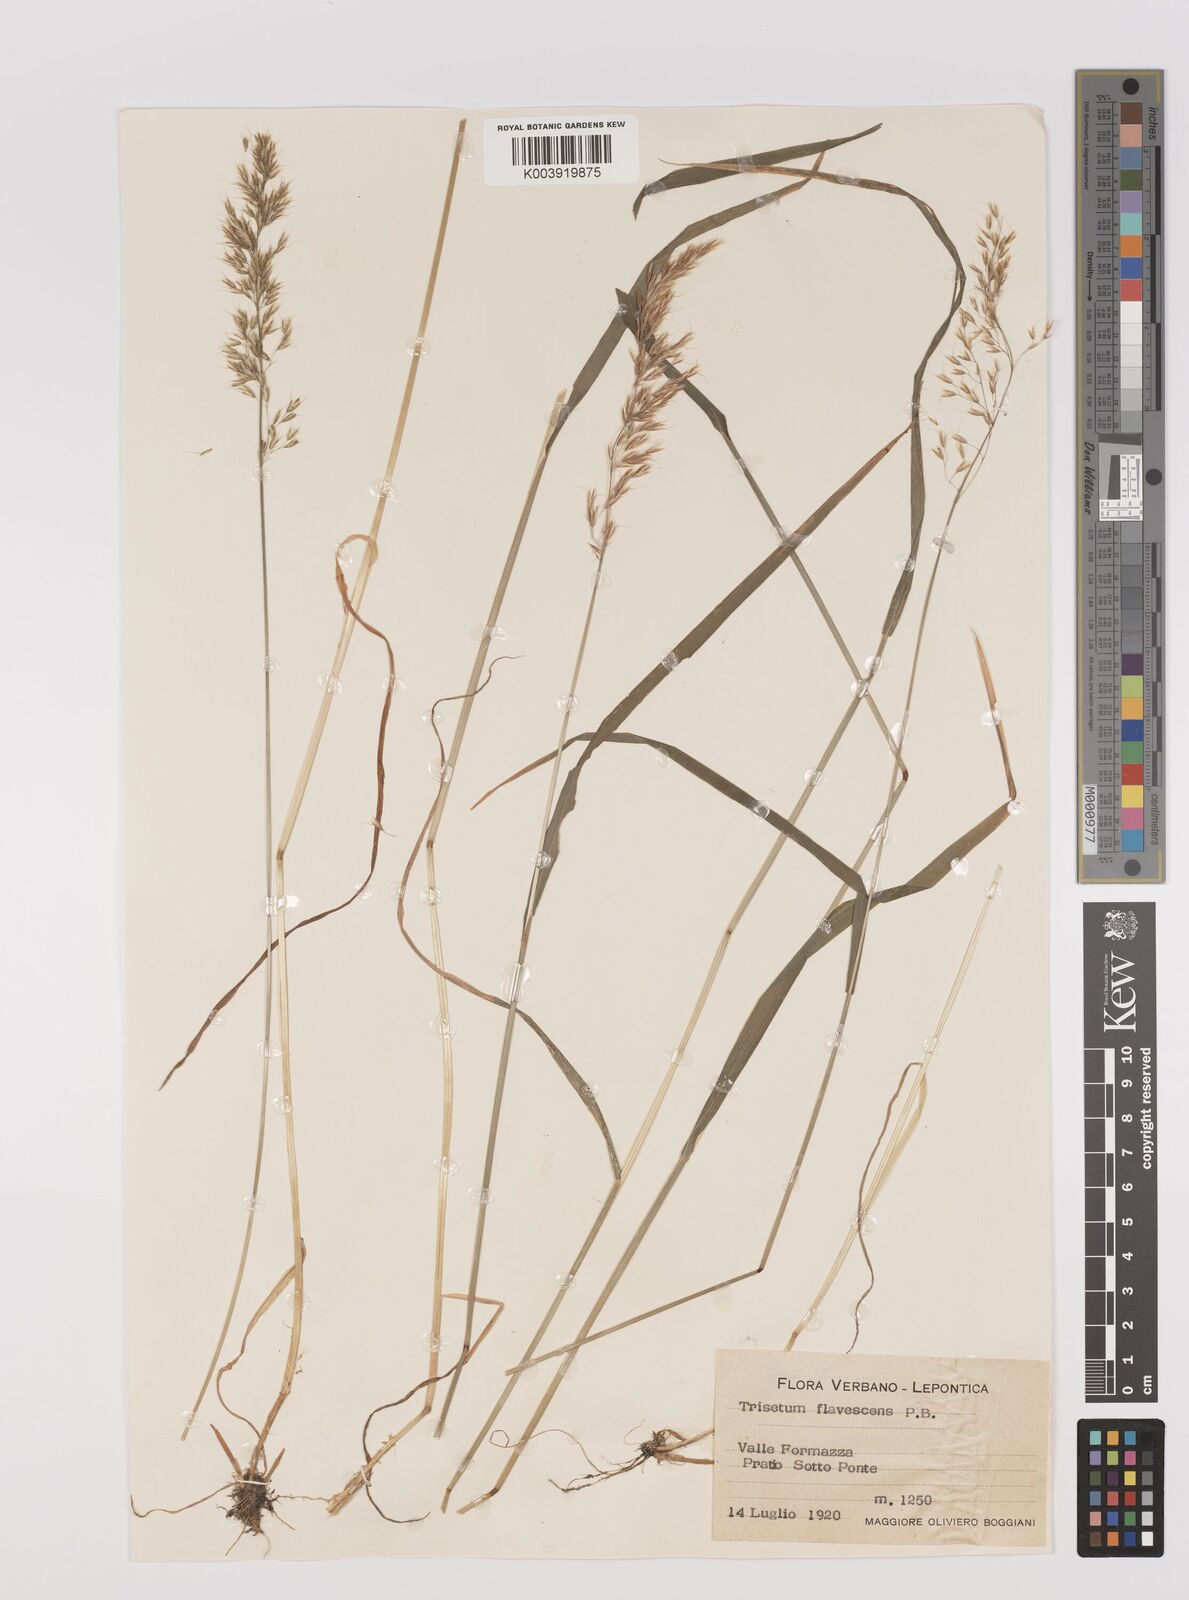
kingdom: Plantae
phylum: Tracheophyta
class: Liliopsida
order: Poales
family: Poaceae
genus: Trisetum
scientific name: Trisetum flavescens
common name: Yellow oat-grass
